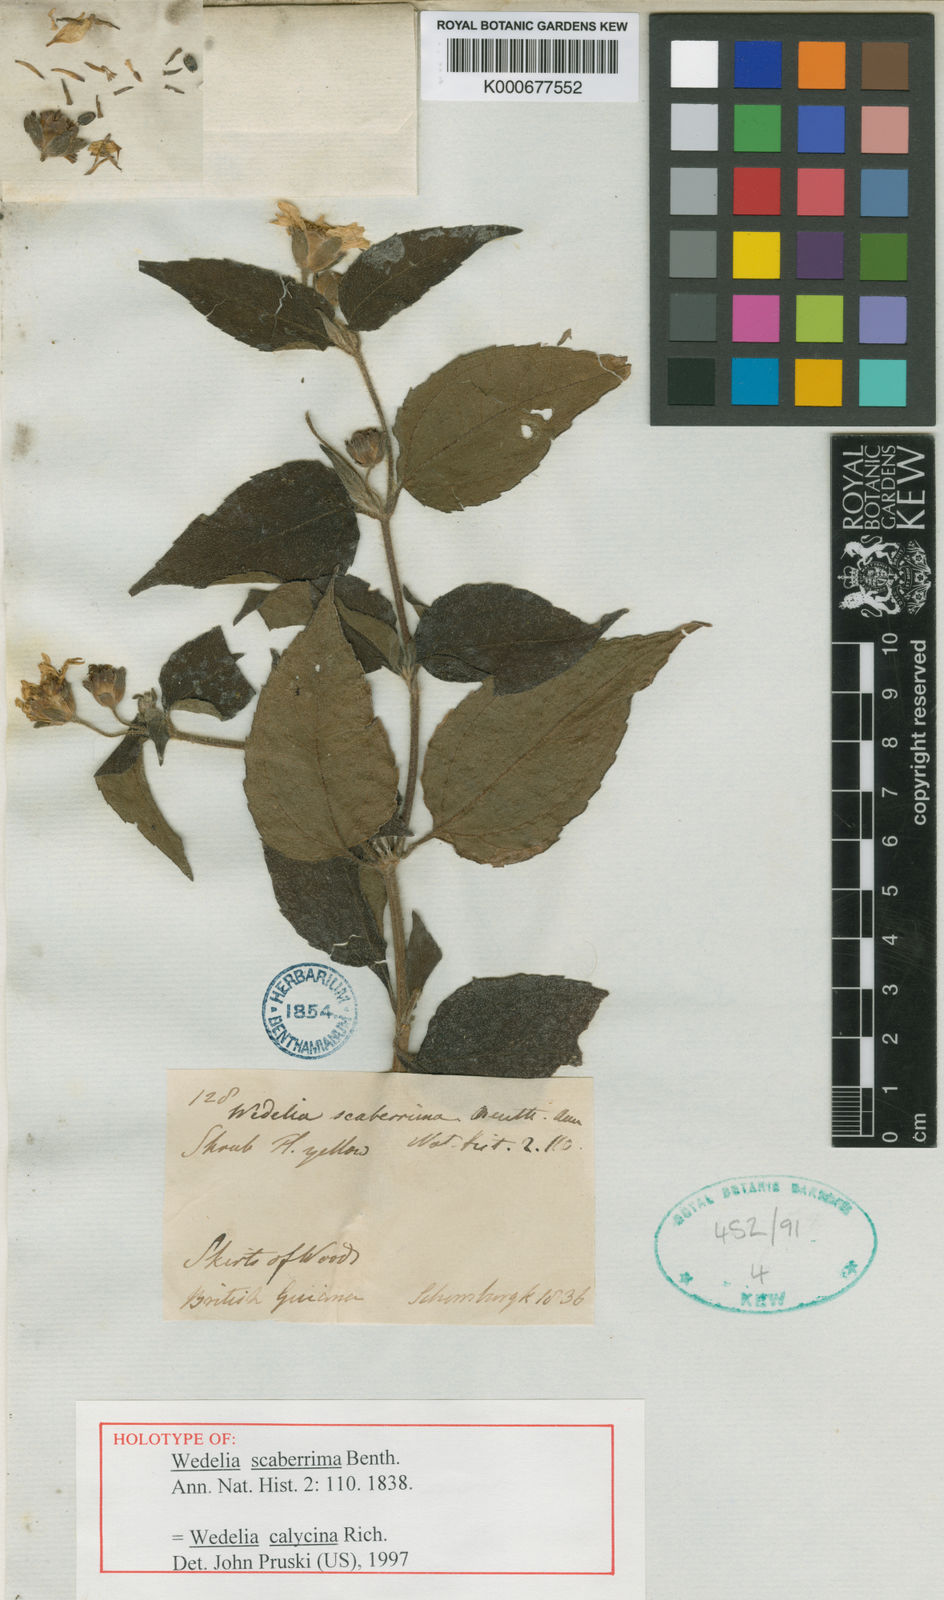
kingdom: Plantae
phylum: Tracheophyta
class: Magnoliopsida
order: Asterales
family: Asteraceae
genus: Wedelia
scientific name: Wedelia calycina
